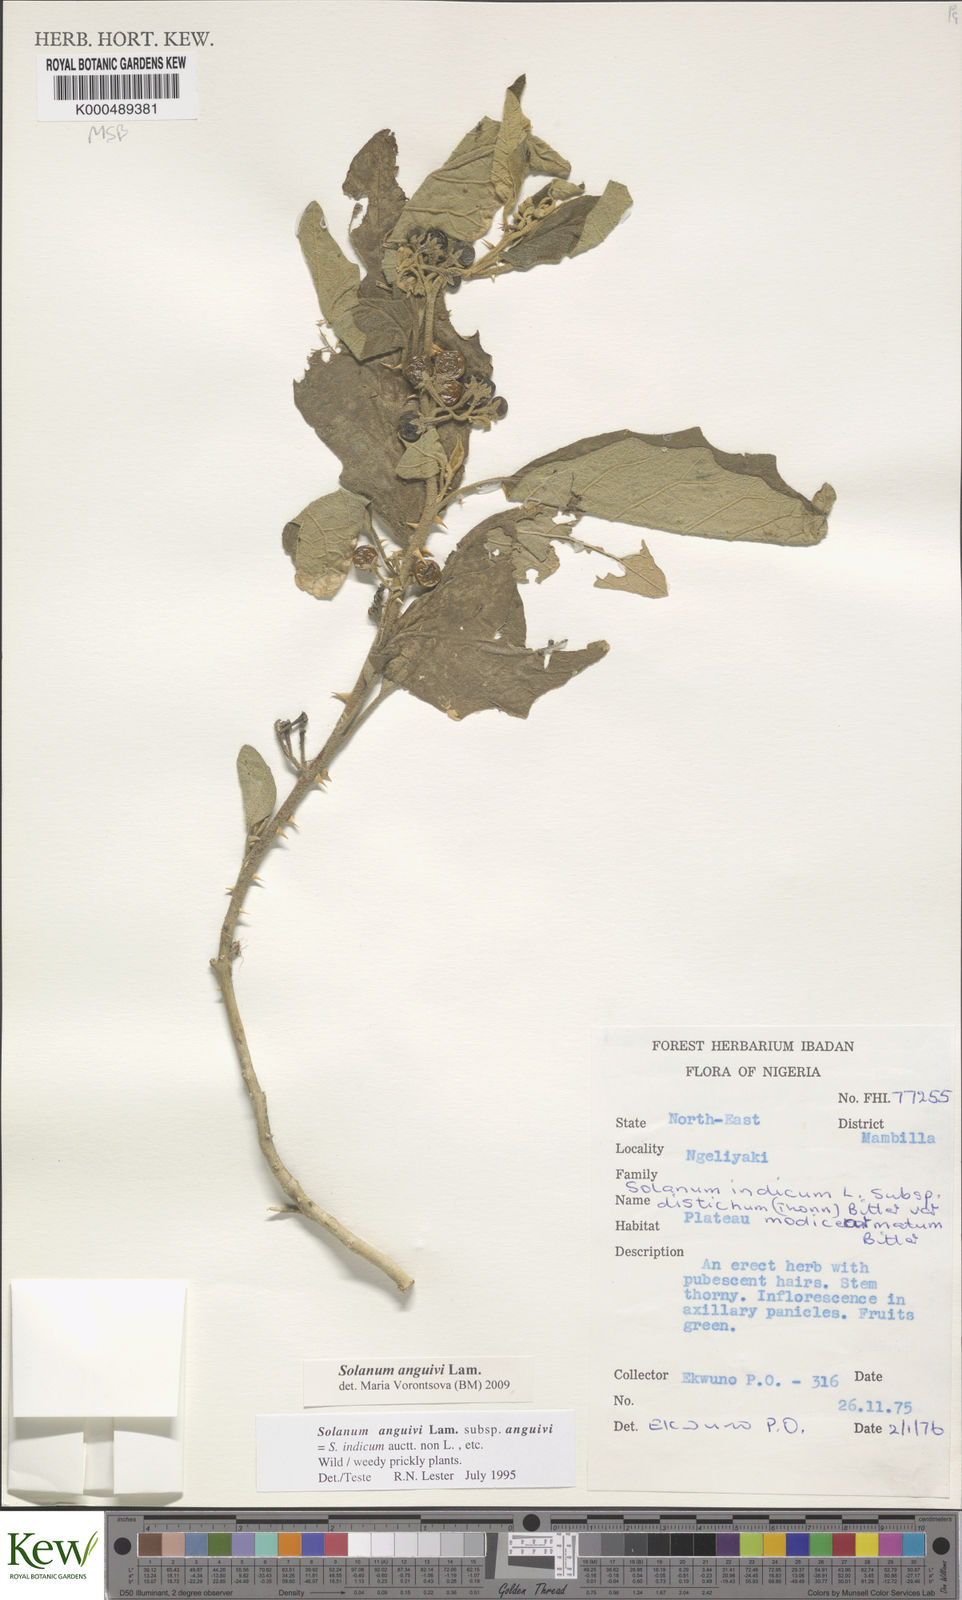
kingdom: Plantae
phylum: Tracheophyta
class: Magnoliopsida
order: Solanales
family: Solanaceae
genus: Solanum
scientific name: Solanum anguivi
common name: Forest bitterberry
